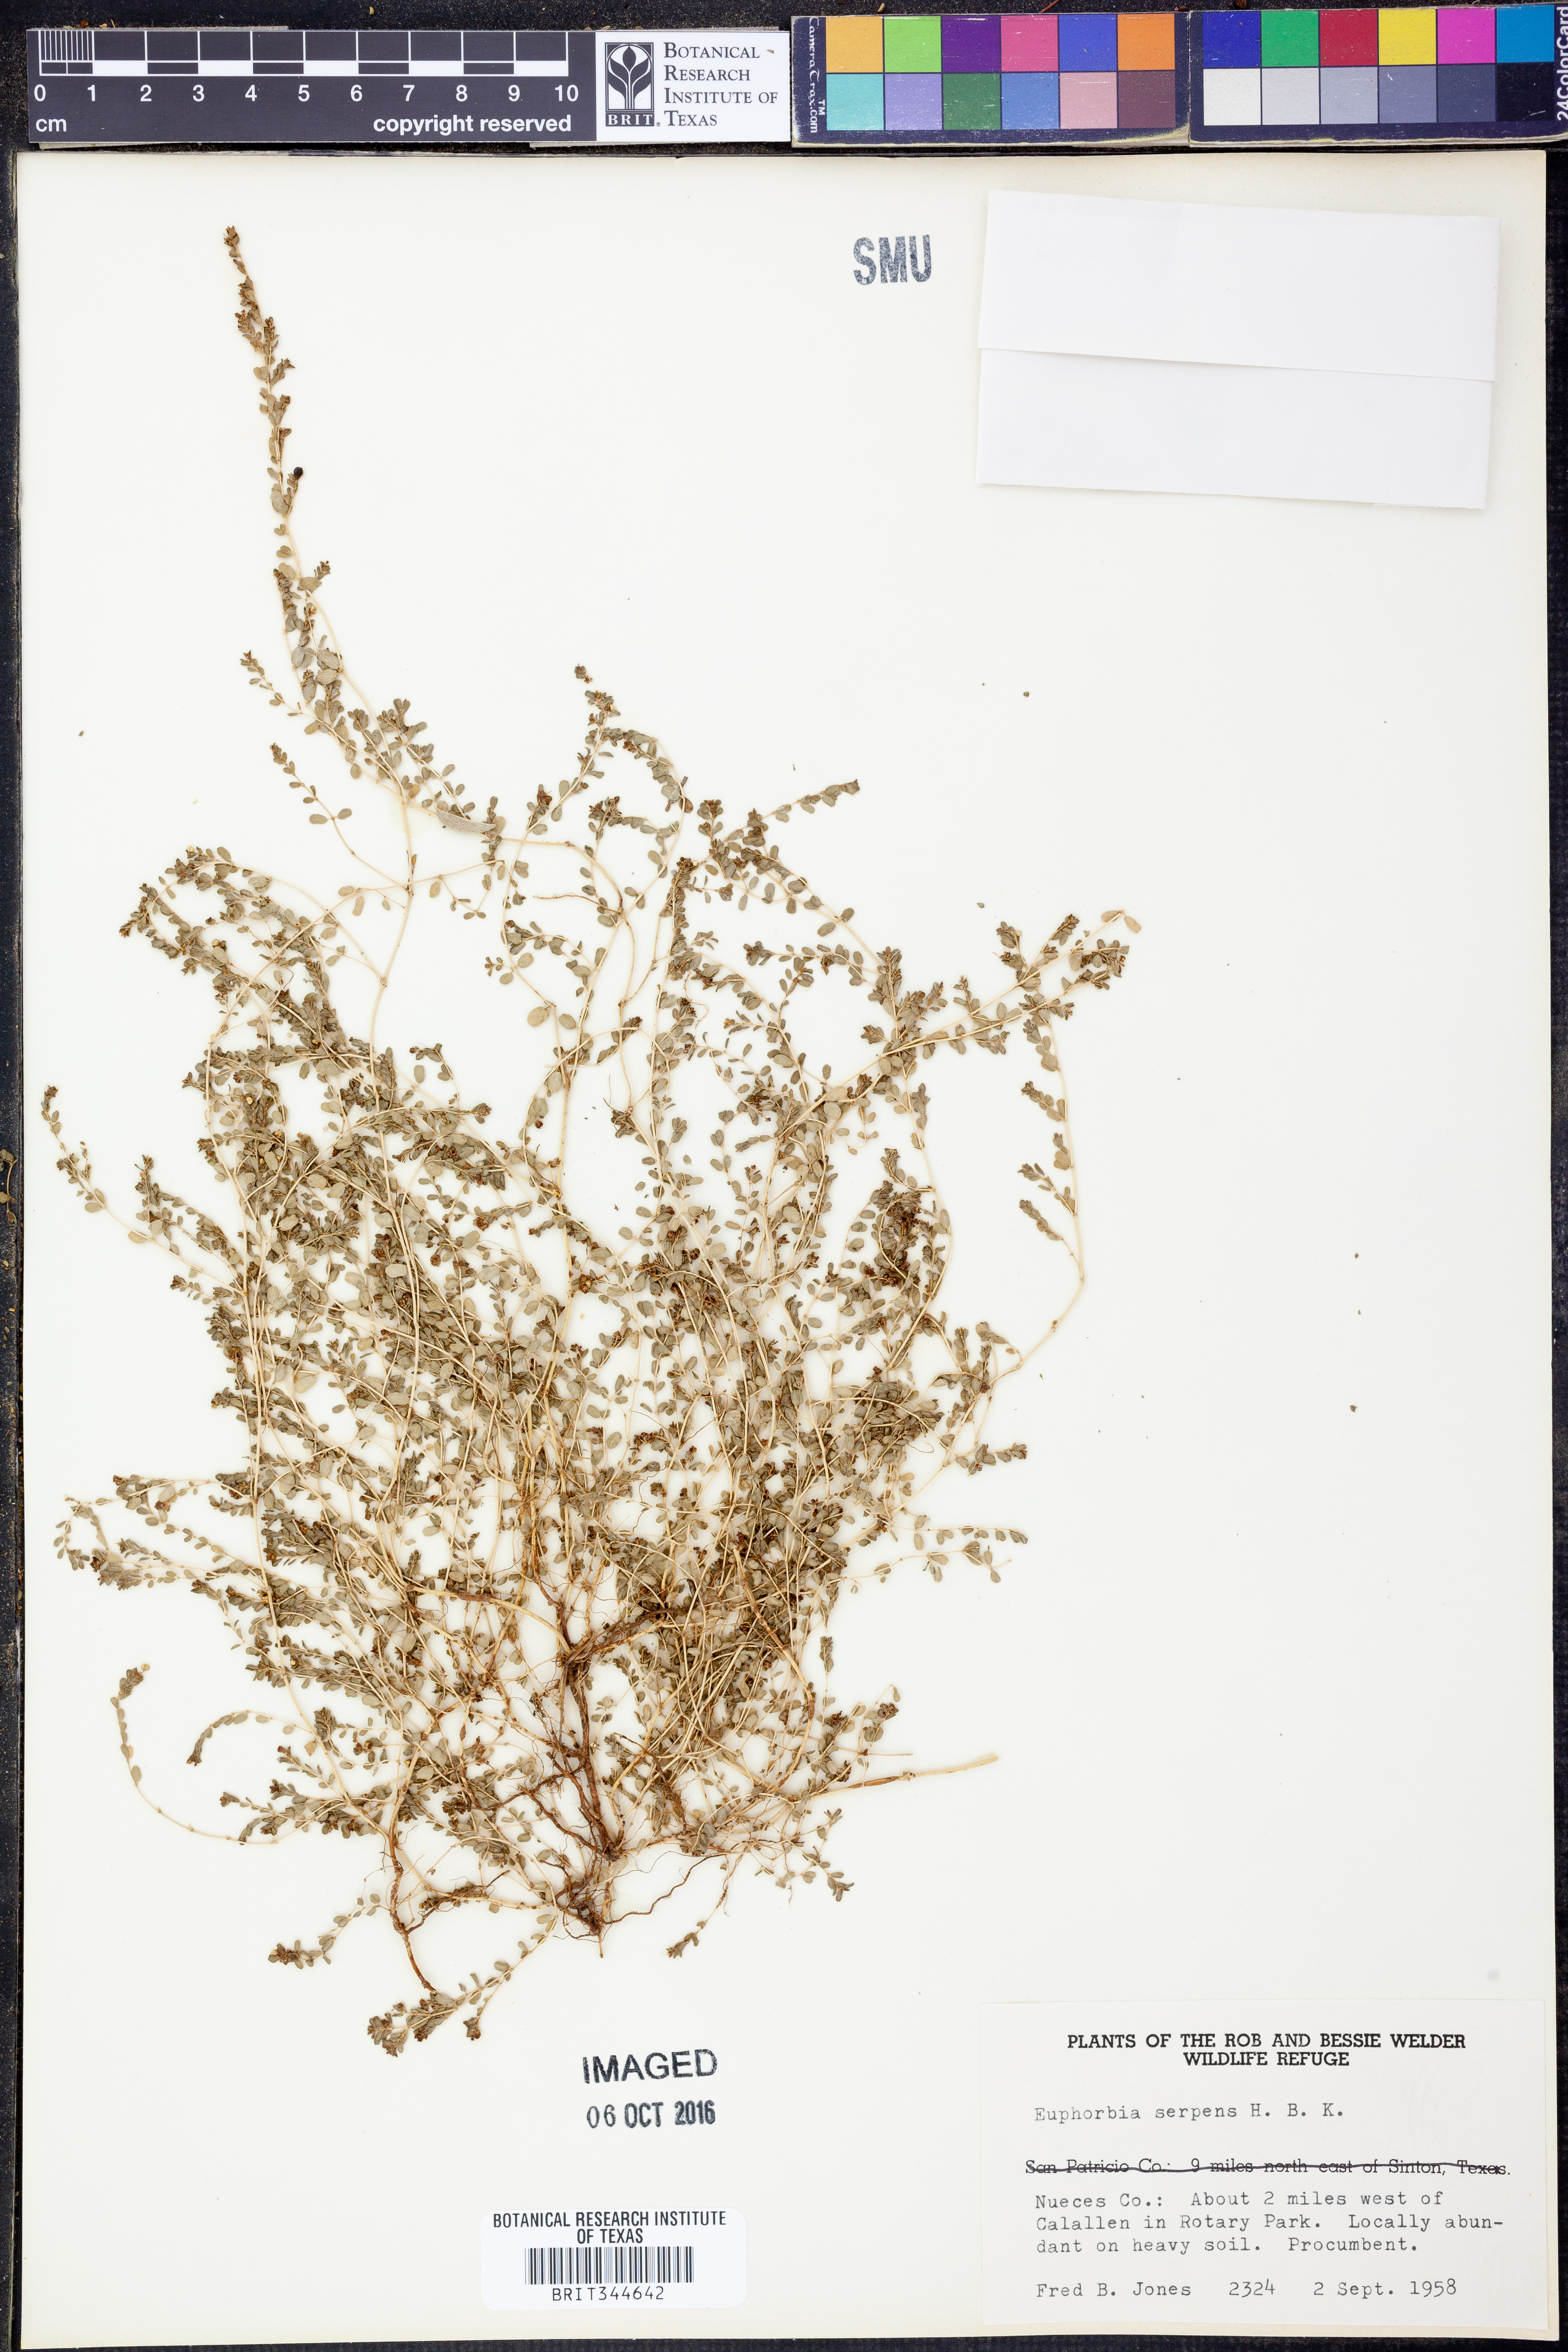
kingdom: Plantae
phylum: Tracheophyta
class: Magnoliopsida
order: Malpighiales
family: Euphorbiaceae
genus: Euphorbia
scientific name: Euphorbia serpens
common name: Matted sandmat
